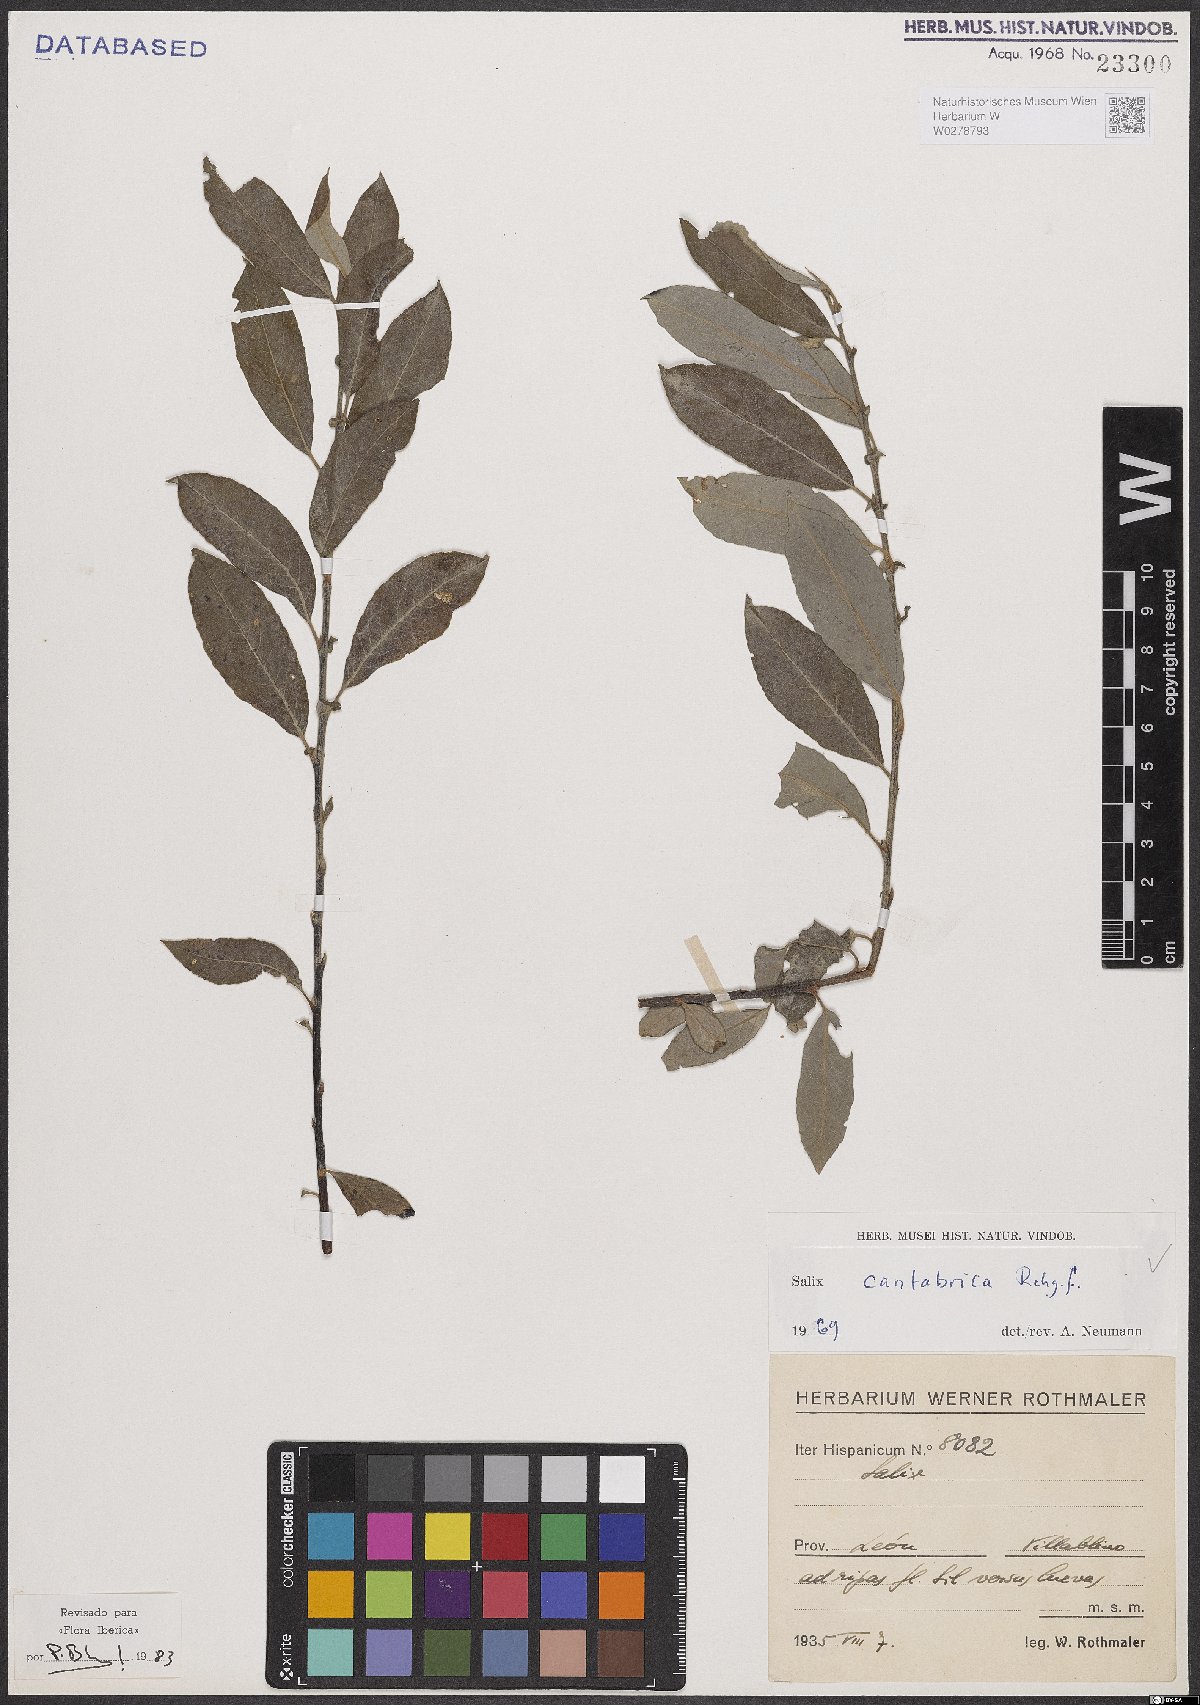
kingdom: Plantae
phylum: Tracheophyta
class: Magnoliopsida
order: Malpighiales
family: Salicaceae
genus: Salix
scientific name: Salix cantabrica
